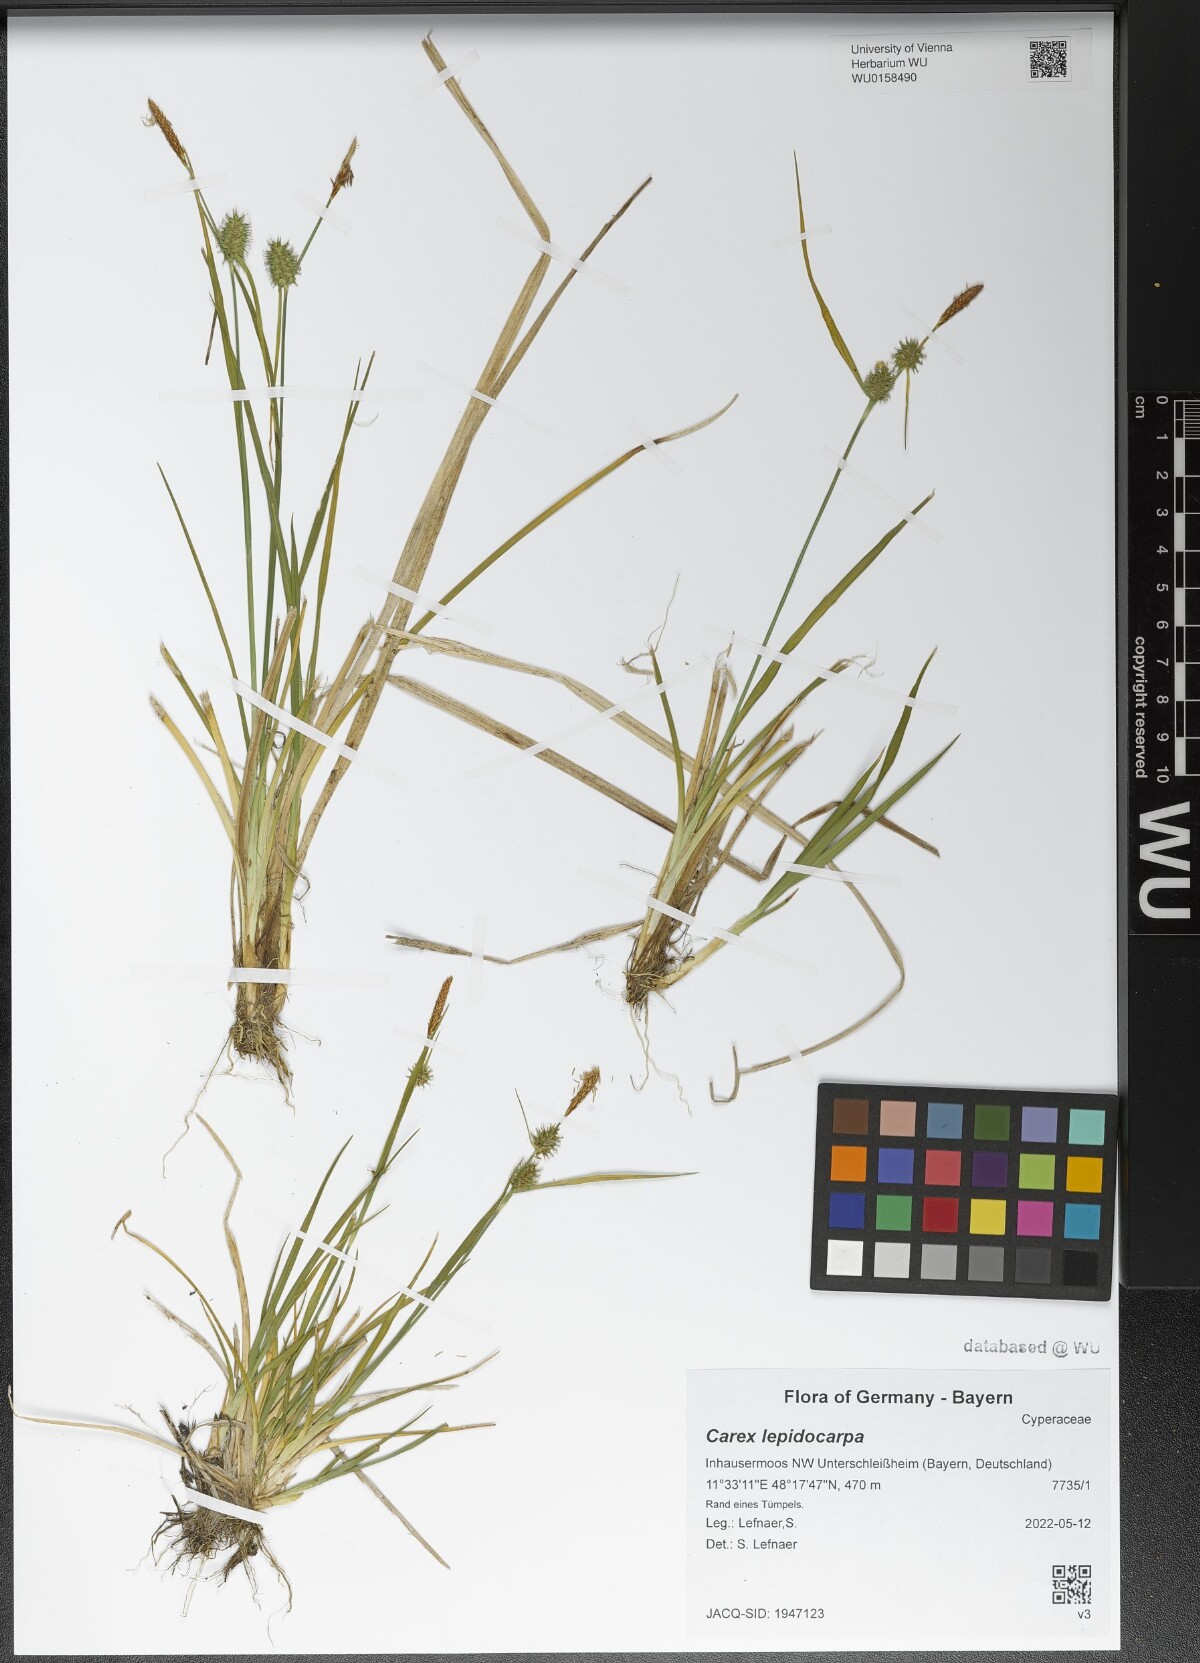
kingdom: Plantae
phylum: Tracheophyta
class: Liliopsida
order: Poales
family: Cyperaceae
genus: Carex
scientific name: Carex lepidocarpa
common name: Long-stalked yellow-sedge
